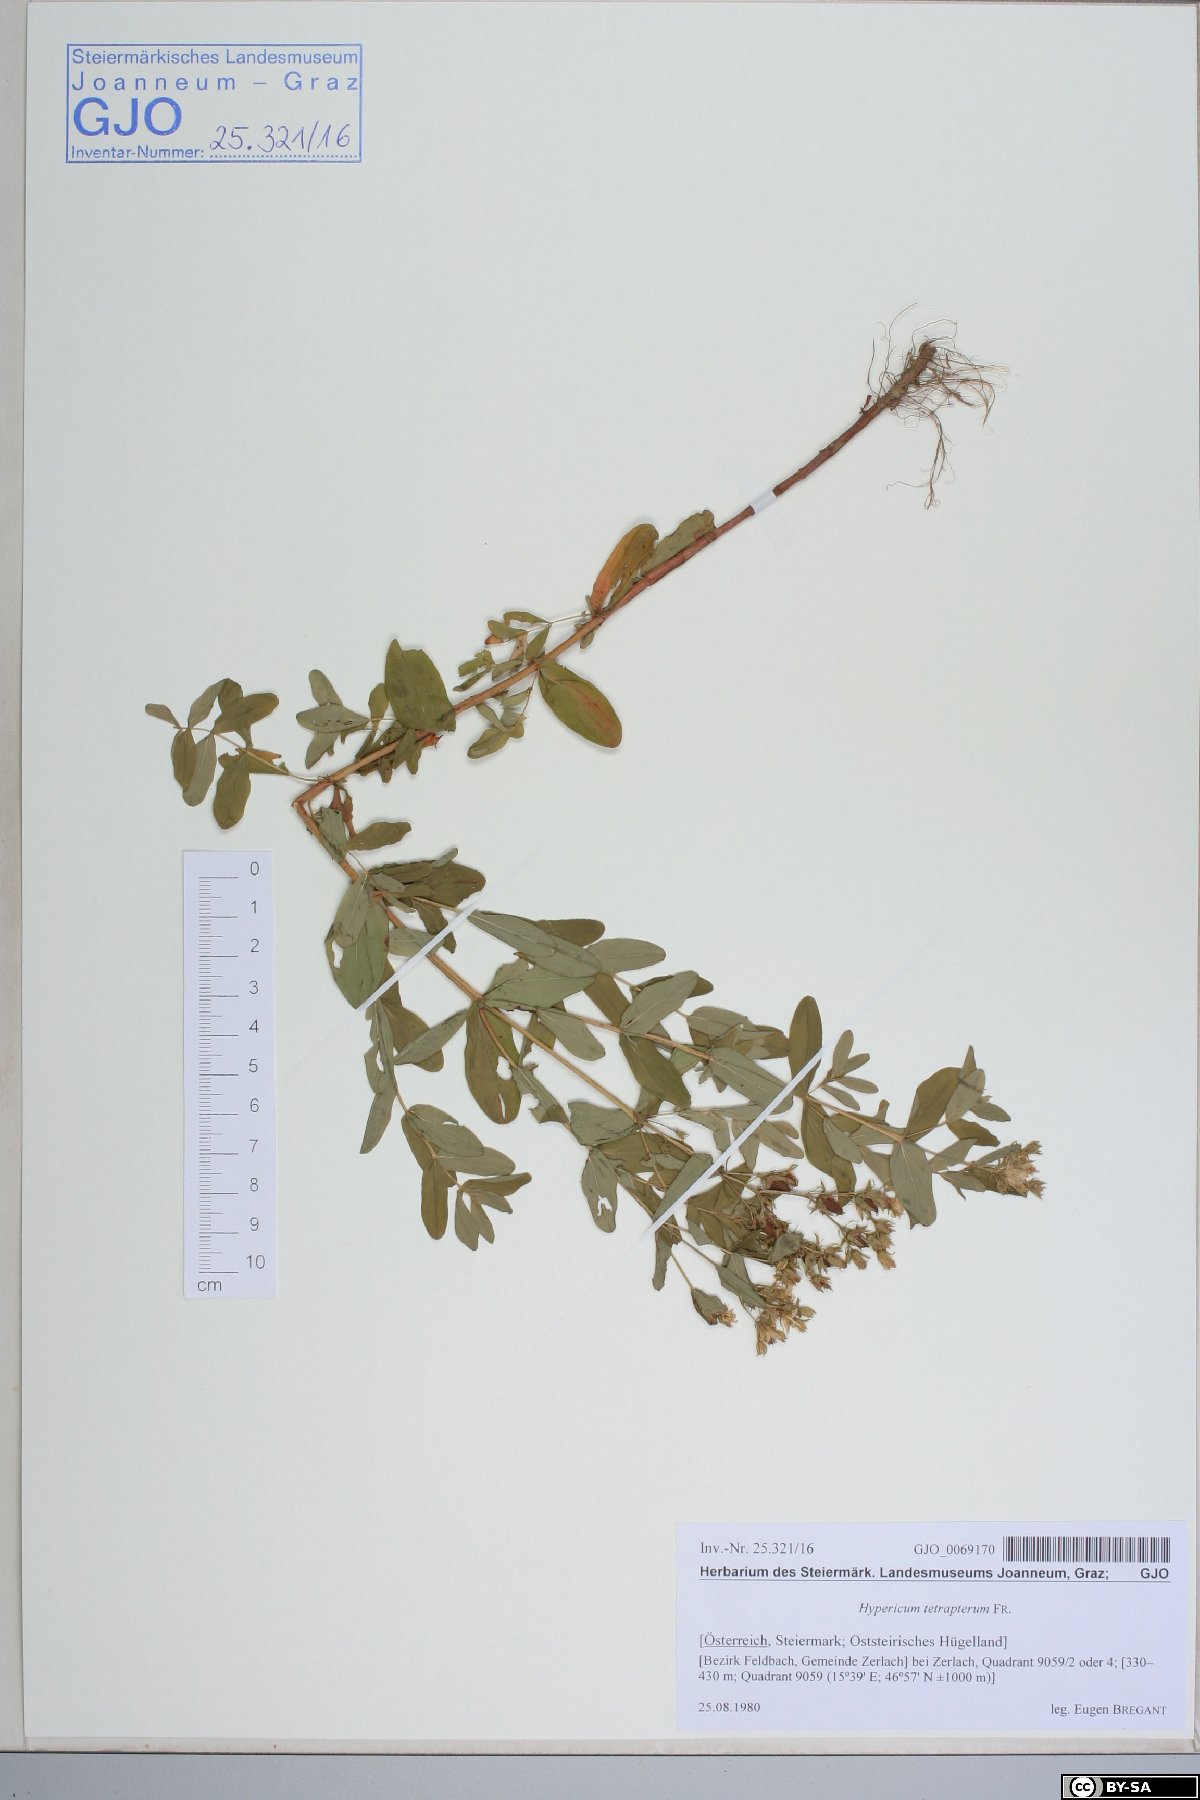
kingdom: Plantae
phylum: Tracheophyta
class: Magnoliopsida
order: Malpighiales
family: Hypericaceae
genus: Hypericum
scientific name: Hypericum tetrapterum
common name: Square-stalked st. john's-wort
